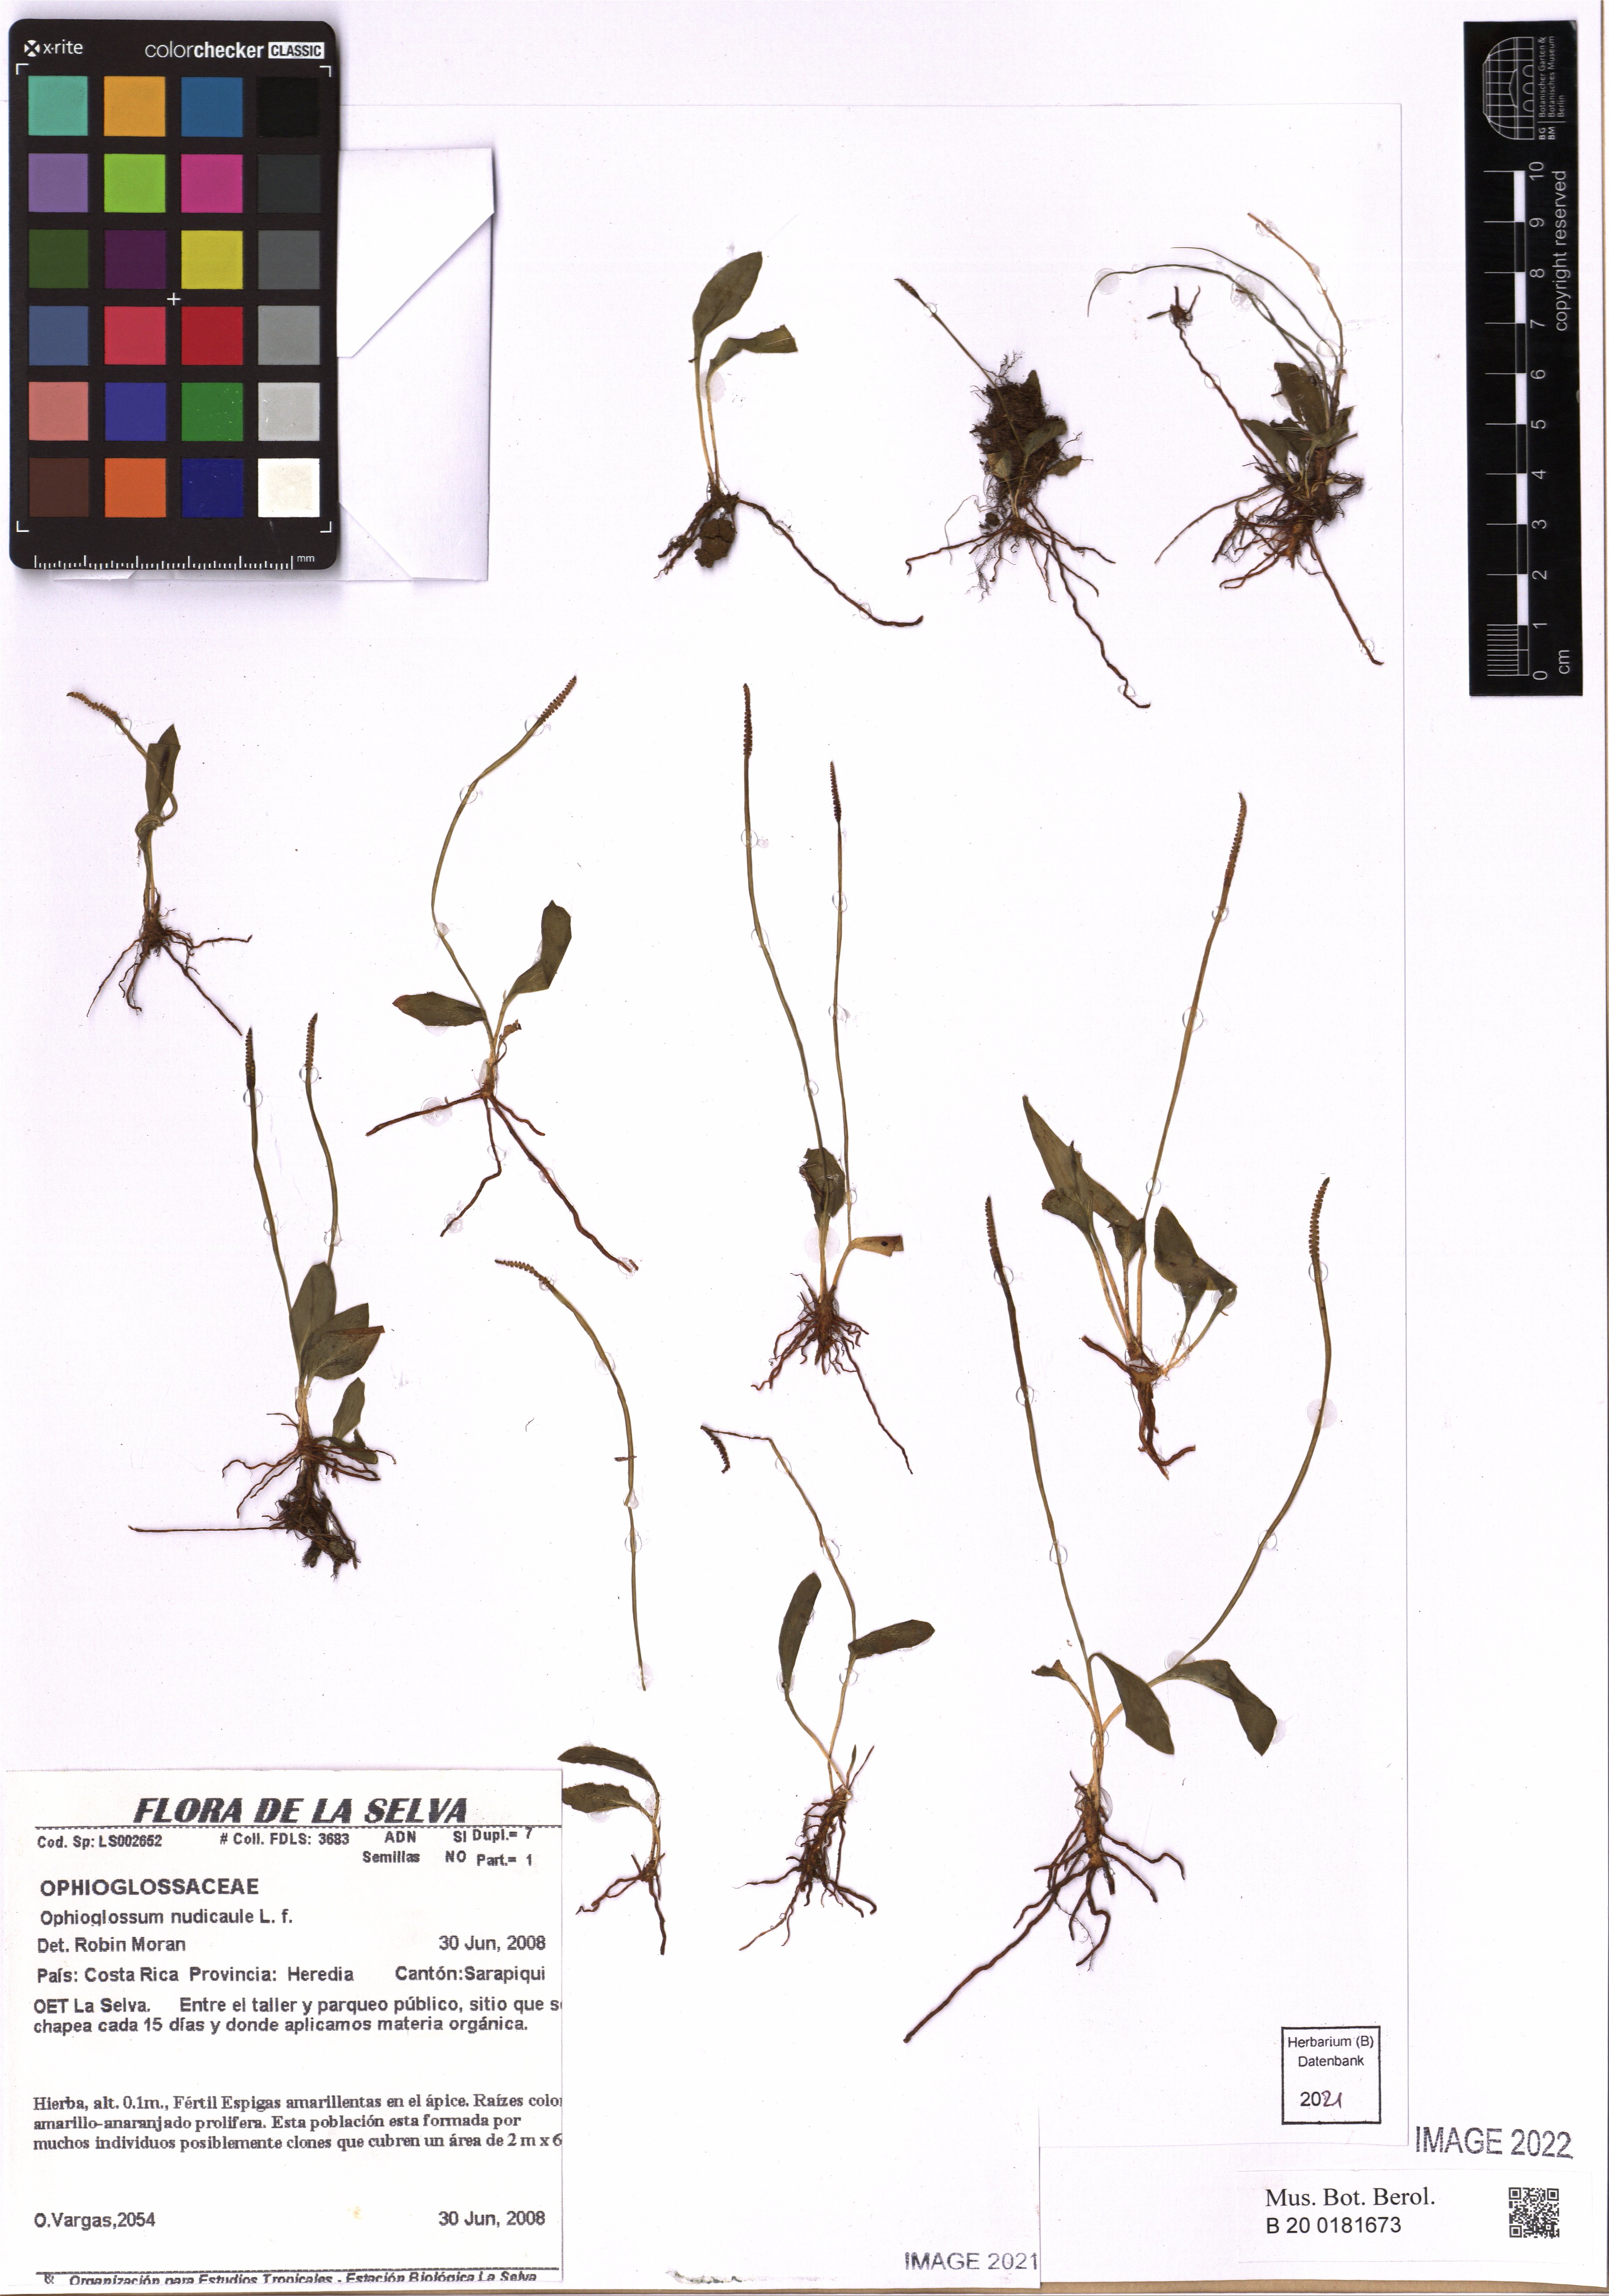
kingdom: Plantae
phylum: Tracheophyta
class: Polypodiopsida
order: Ophioglossales
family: Ophioglossaceae
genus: Ophioglossum
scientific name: Ophioglossum nudicaule
